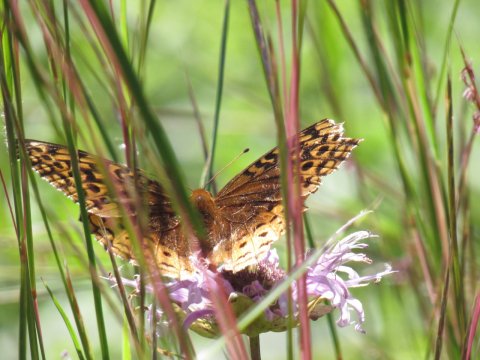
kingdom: Animalia
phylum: Arthropoda
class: Insecta
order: Lepidoptera
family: Nymphalidae
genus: Speyeria
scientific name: Speyeria cybele
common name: Great Spangled Fritillary
